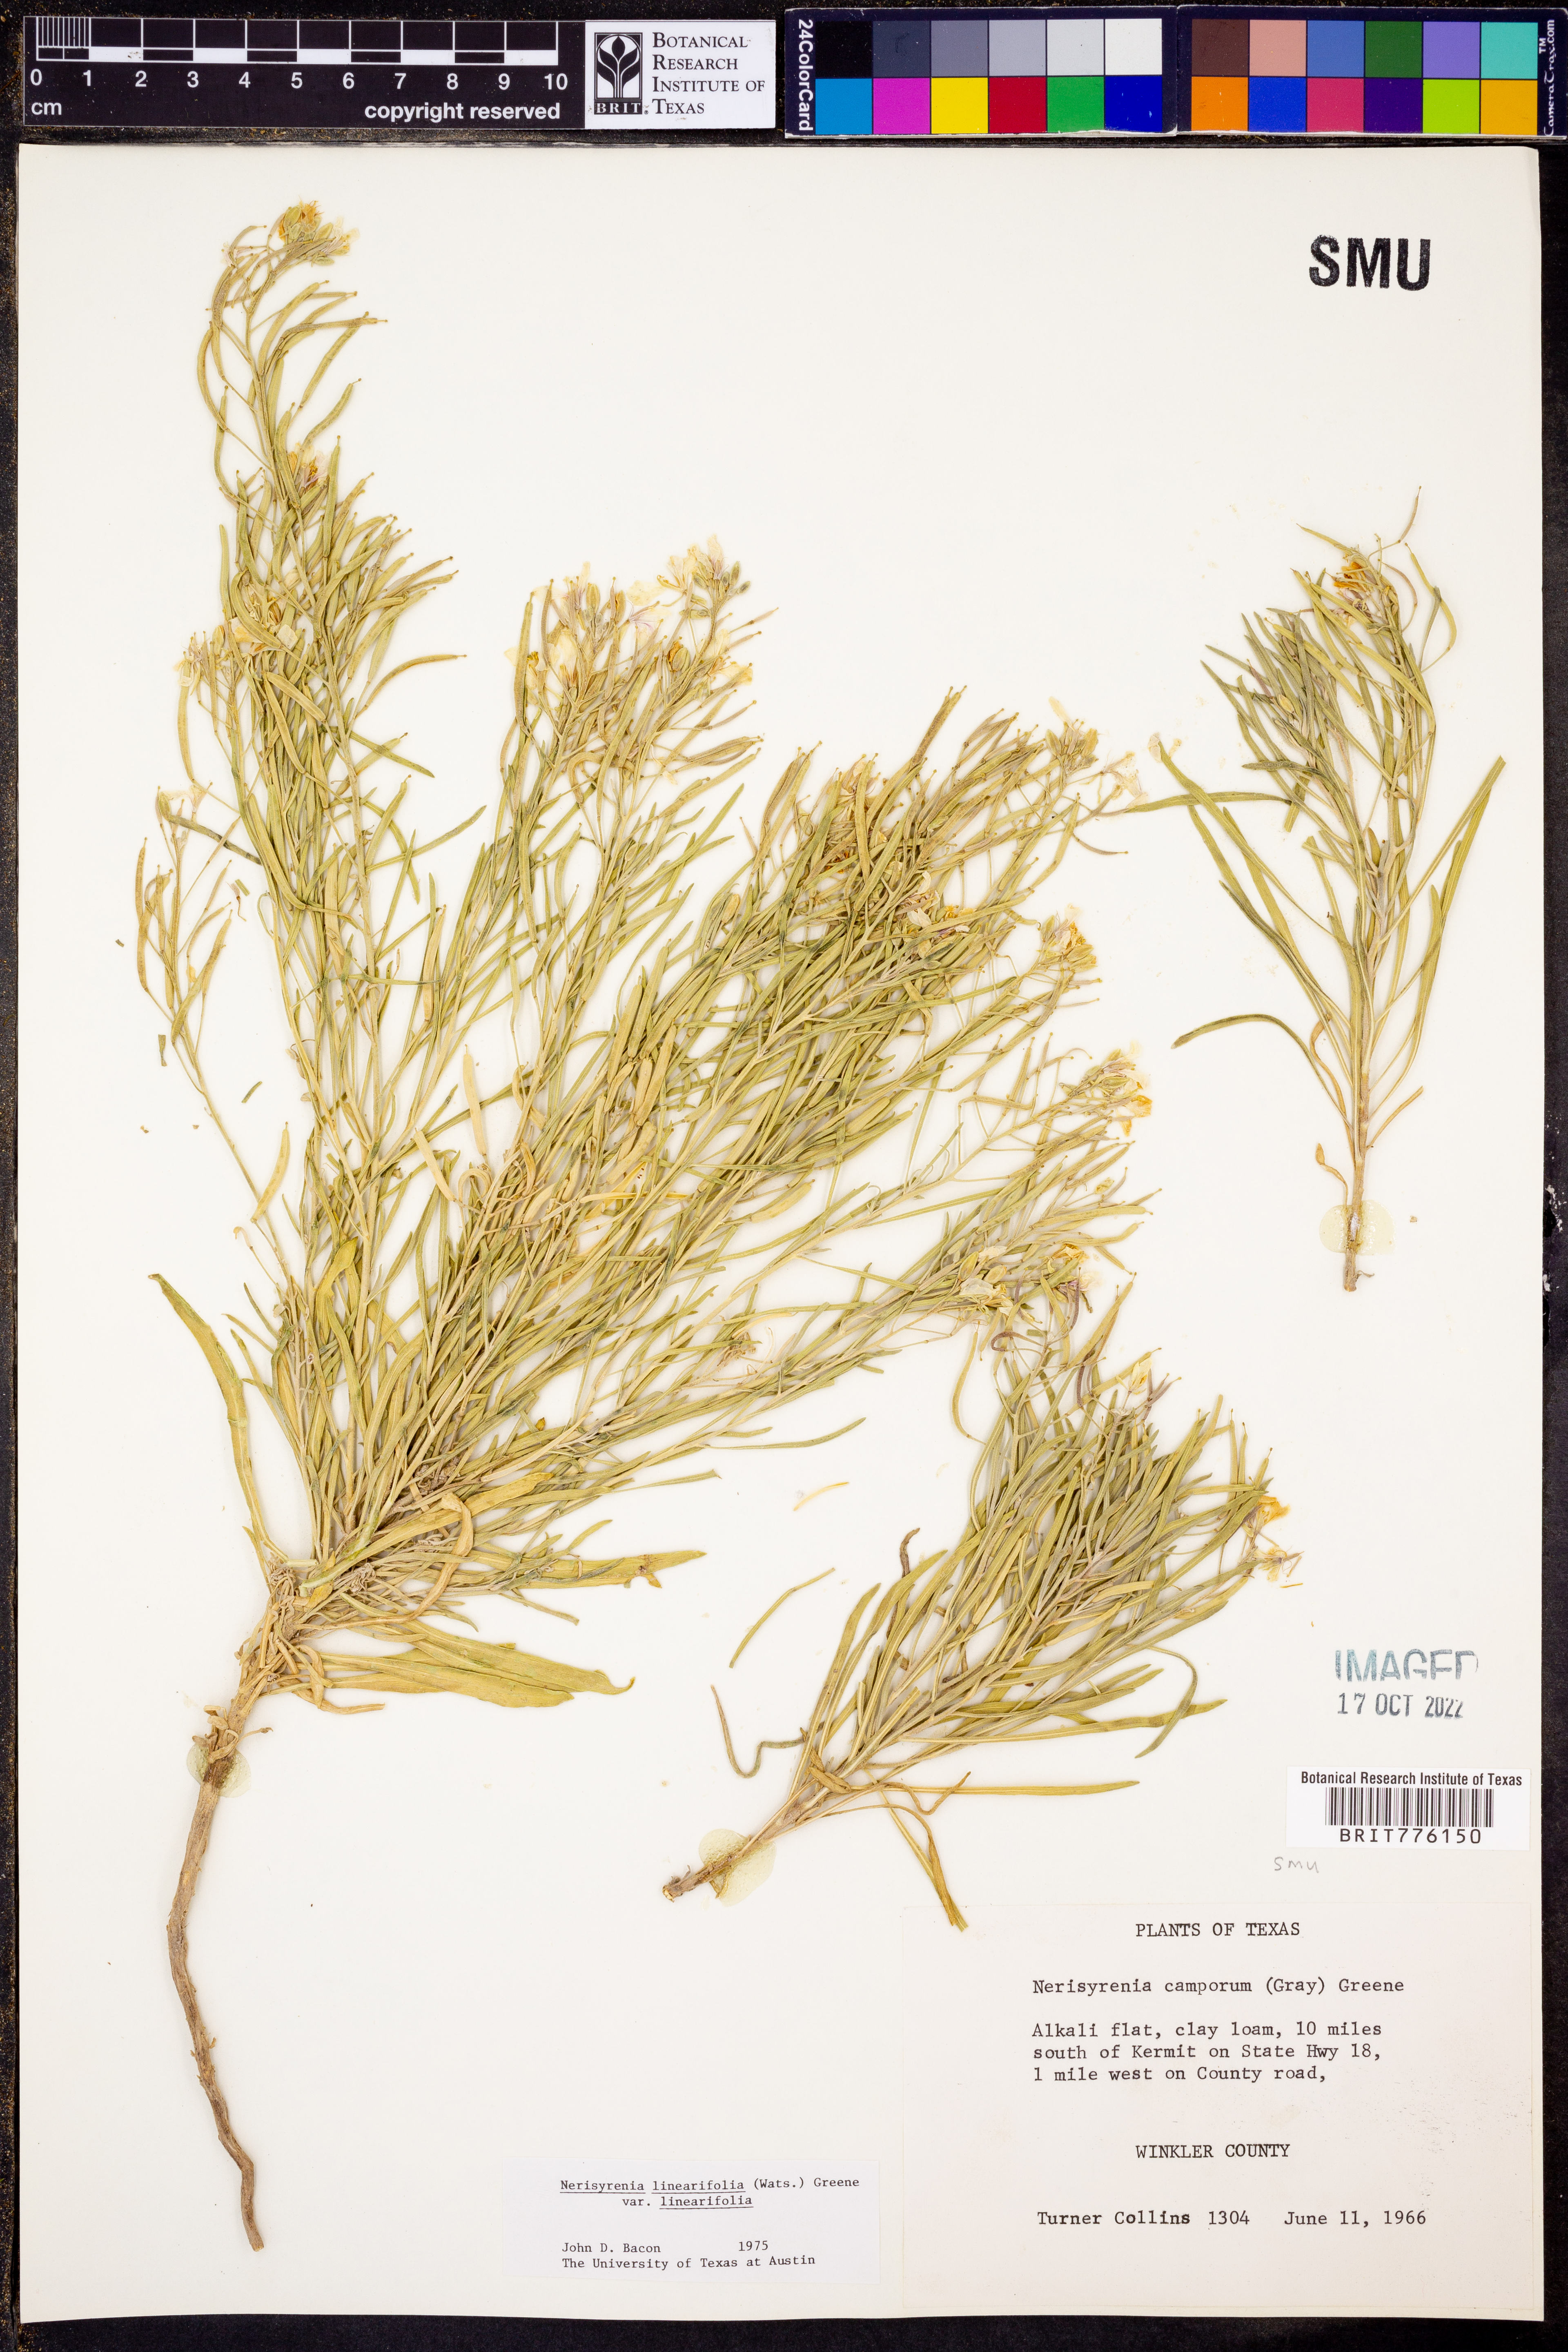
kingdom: Plantae
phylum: Tracheophyta
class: Magnoliopsida
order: Brassicales
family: Brassicaceae
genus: Nerisyrenia
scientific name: Nerisyrenia linearifolia
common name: White sands fan mustard
